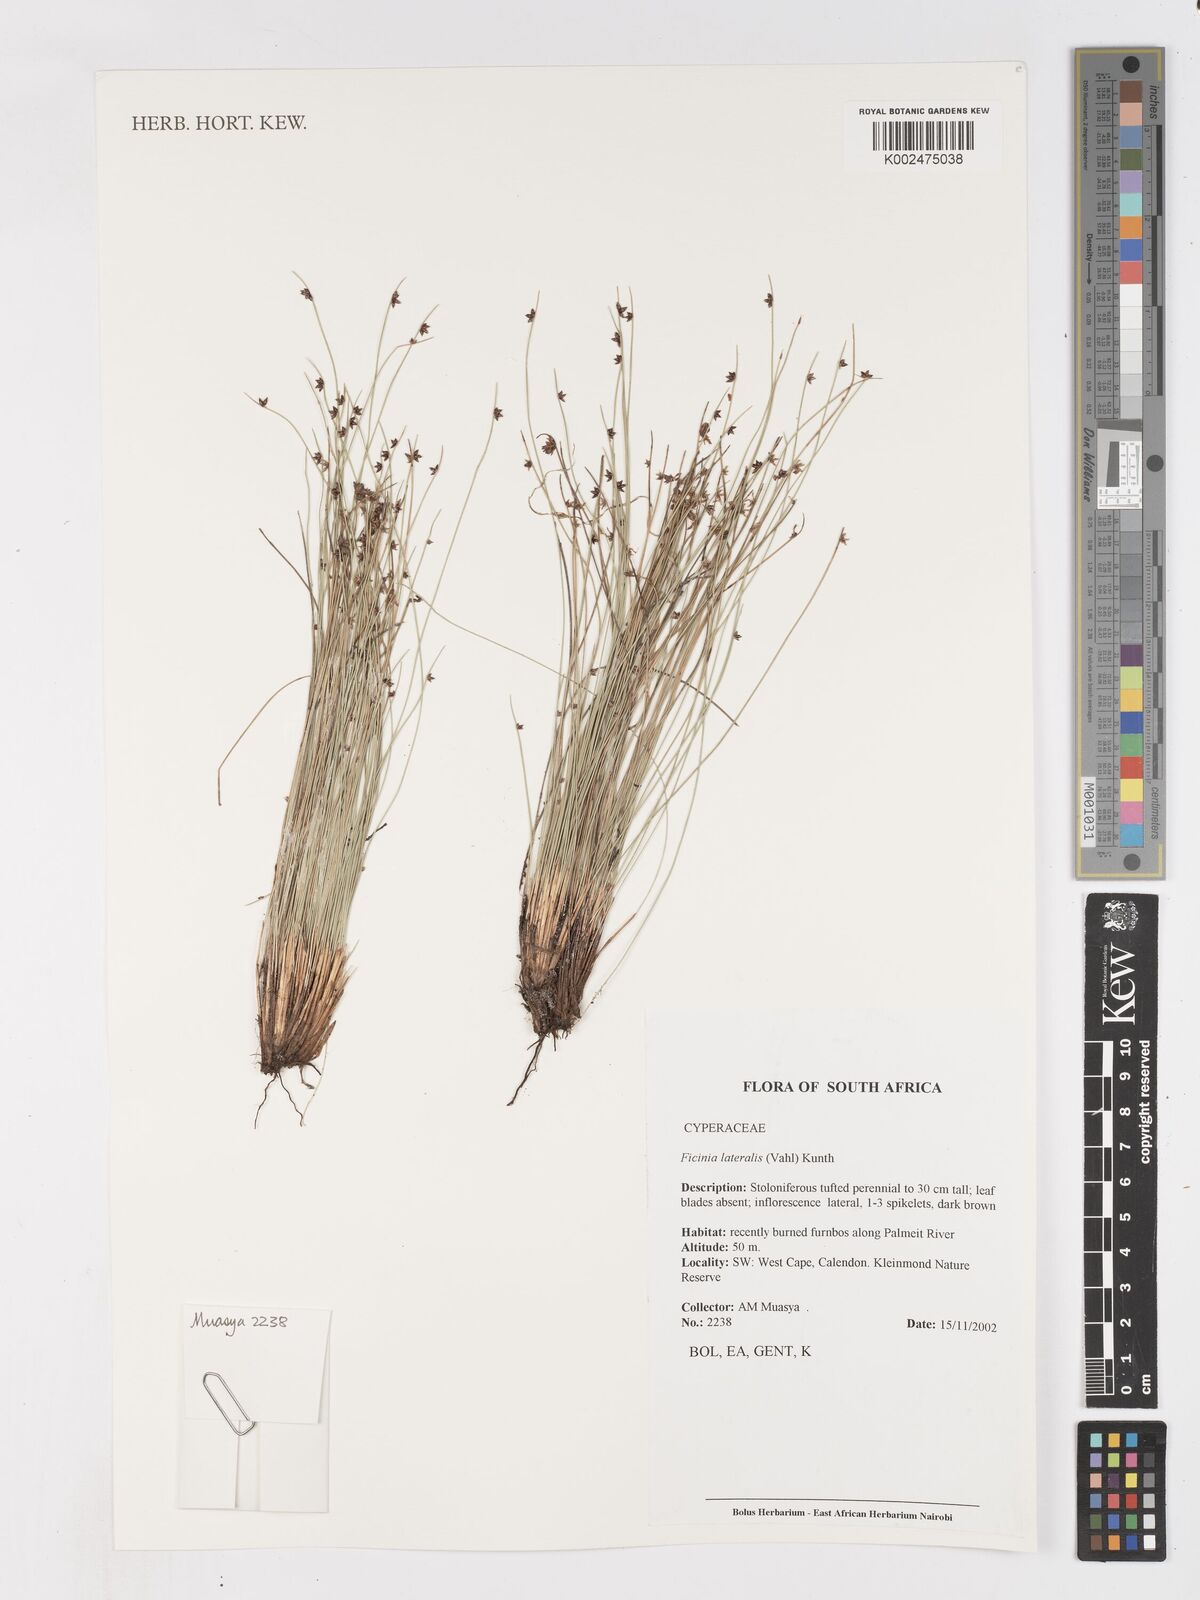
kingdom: Plantae
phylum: Tracheophyta
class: Liliopsida
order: Poales
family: Cyperaceae
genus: Ficinia
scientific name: Ficinia lateralis
